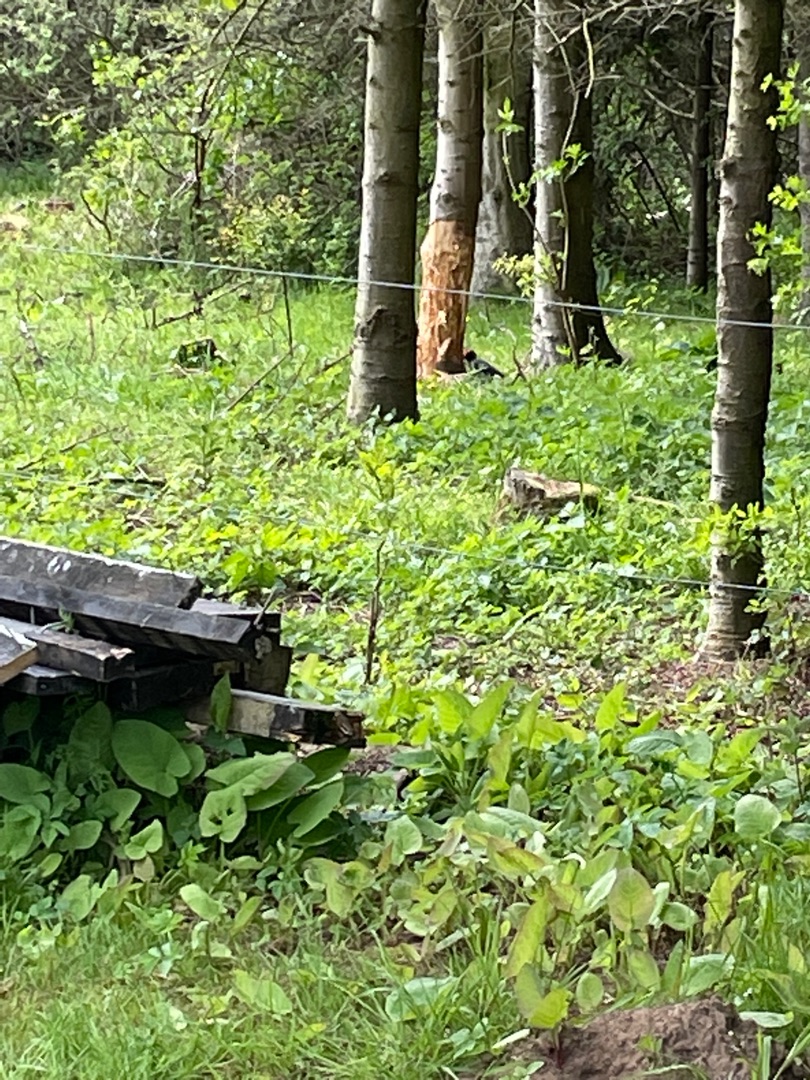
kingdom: Animalia
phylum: Chordata
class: Aves
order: Piciformes
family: Picidae
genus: Dryocopus
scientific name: Dryocopus martius
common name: Sortspætte
